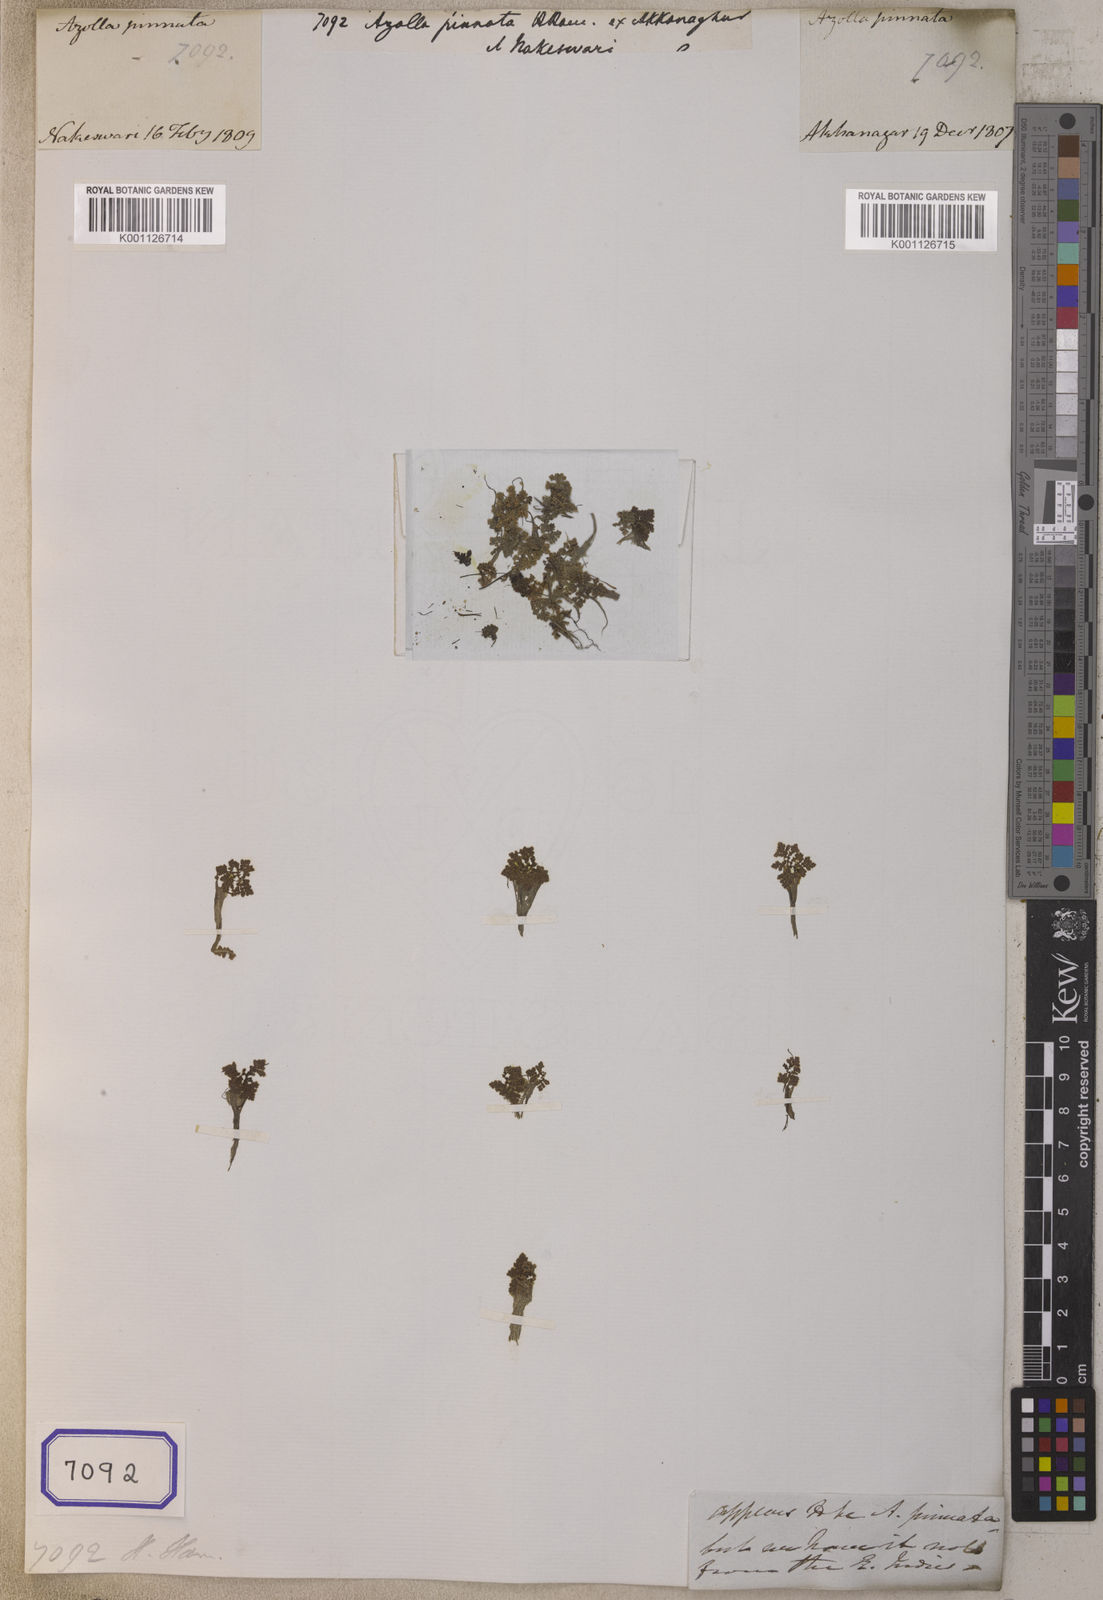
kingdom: Plantae
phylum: Tracheophyta
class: Polypodiopsida
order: Salviniales
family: Salviniaceae
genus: Azolla
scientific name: Azolla pinnata
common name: Ferny azolla
